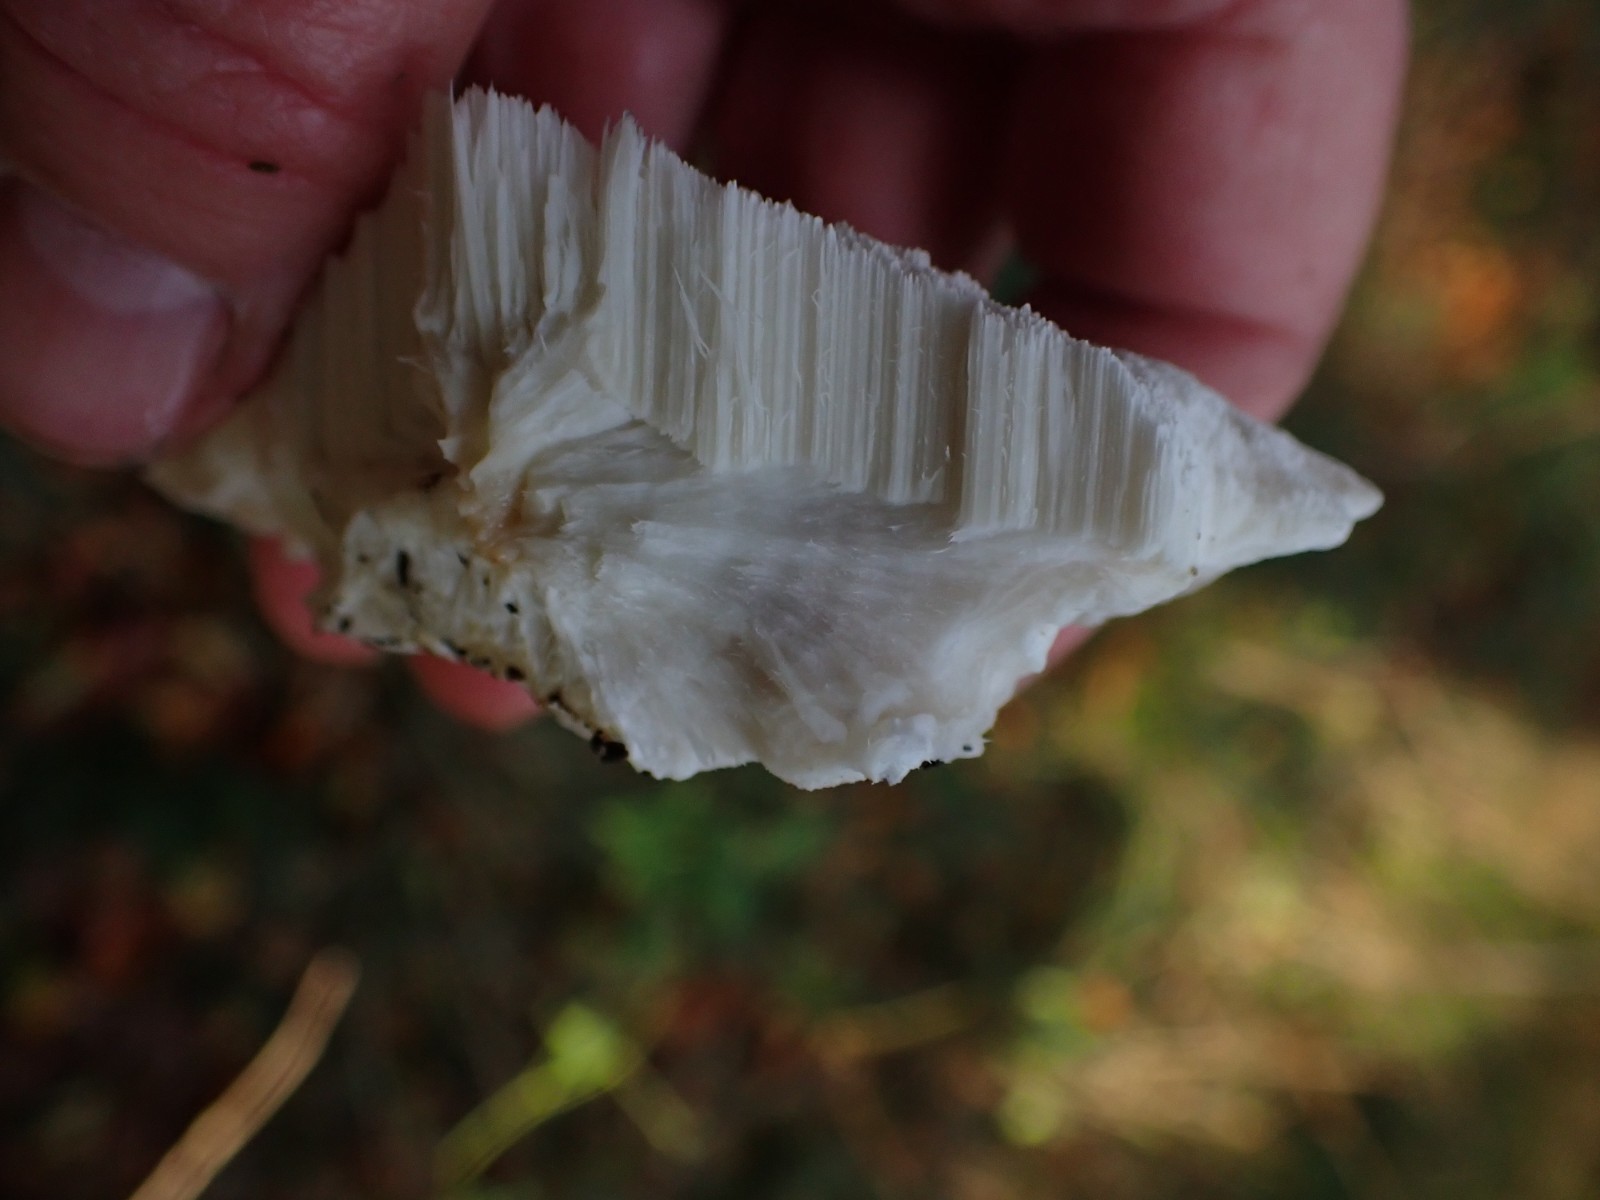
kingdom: Fungi
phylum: Basidiomycota
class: Agaricomycetes
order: Polyporales
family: Dacryobolaceae
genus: Postia
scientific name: Postia
